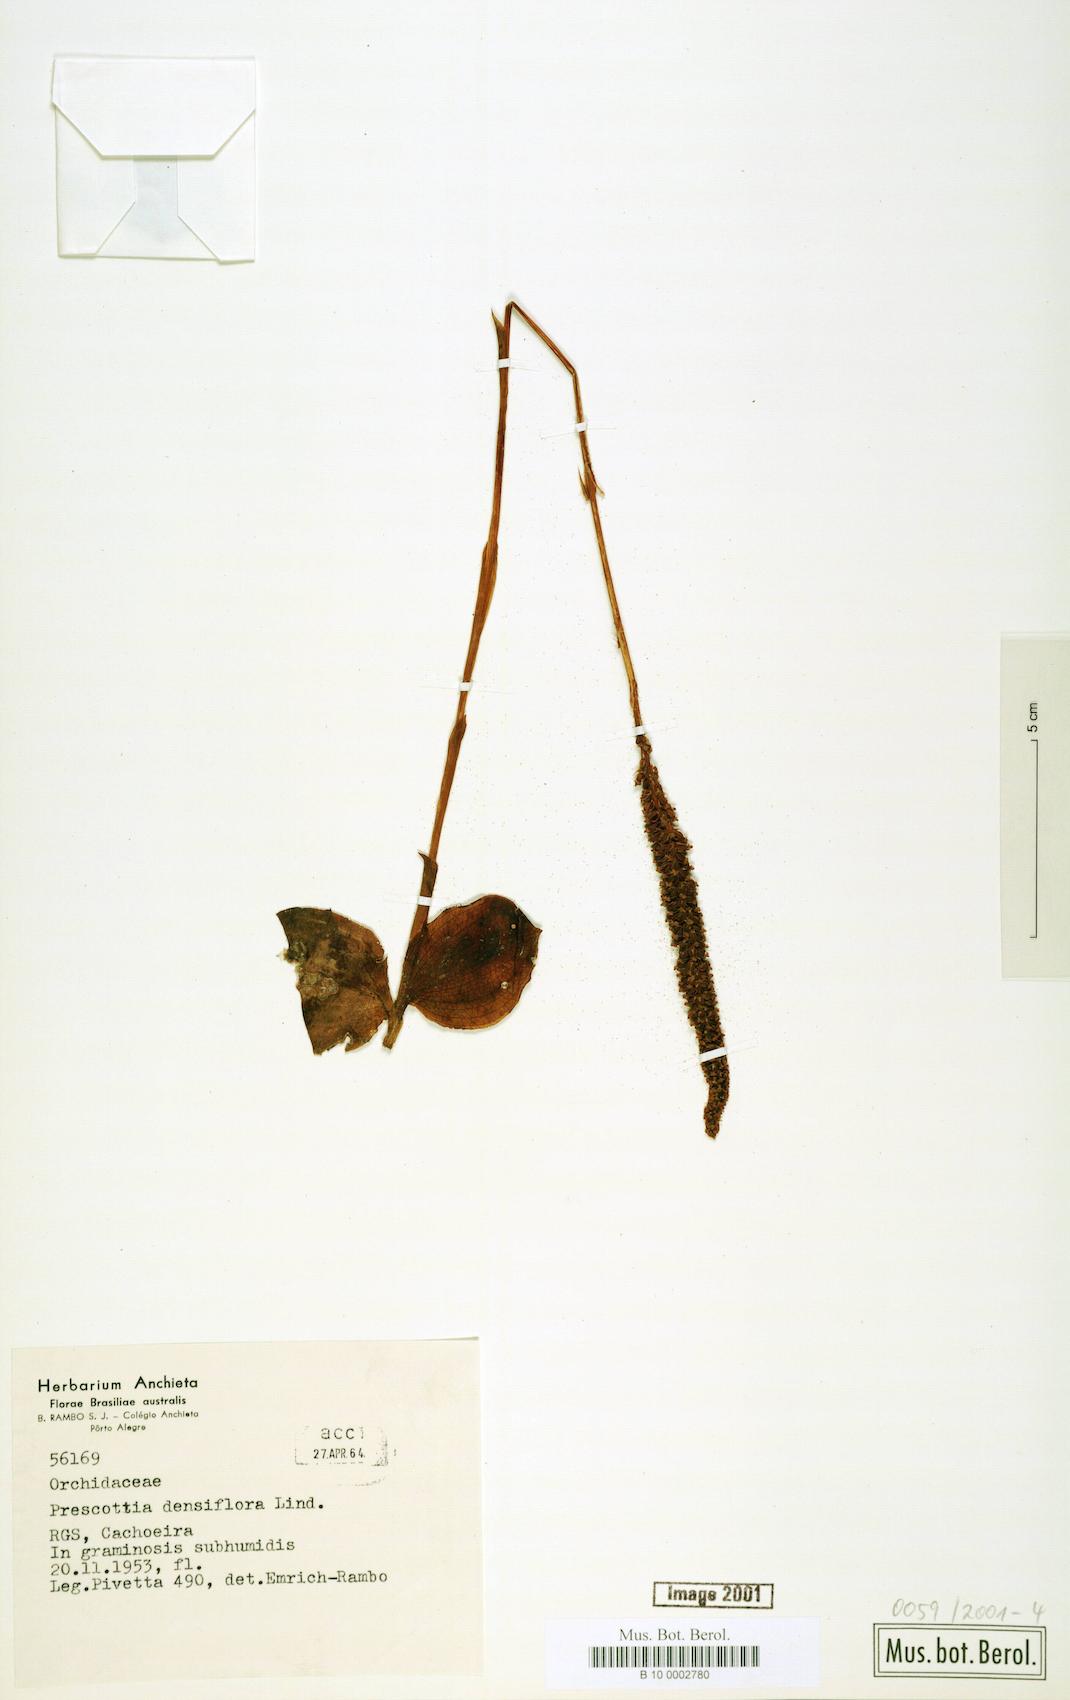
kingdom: Plantae
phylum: Tracheophyta
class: Liliopsida
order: Asparagales
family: Orchidaceae
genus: Prescottia
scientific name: Prescottia densiflora
